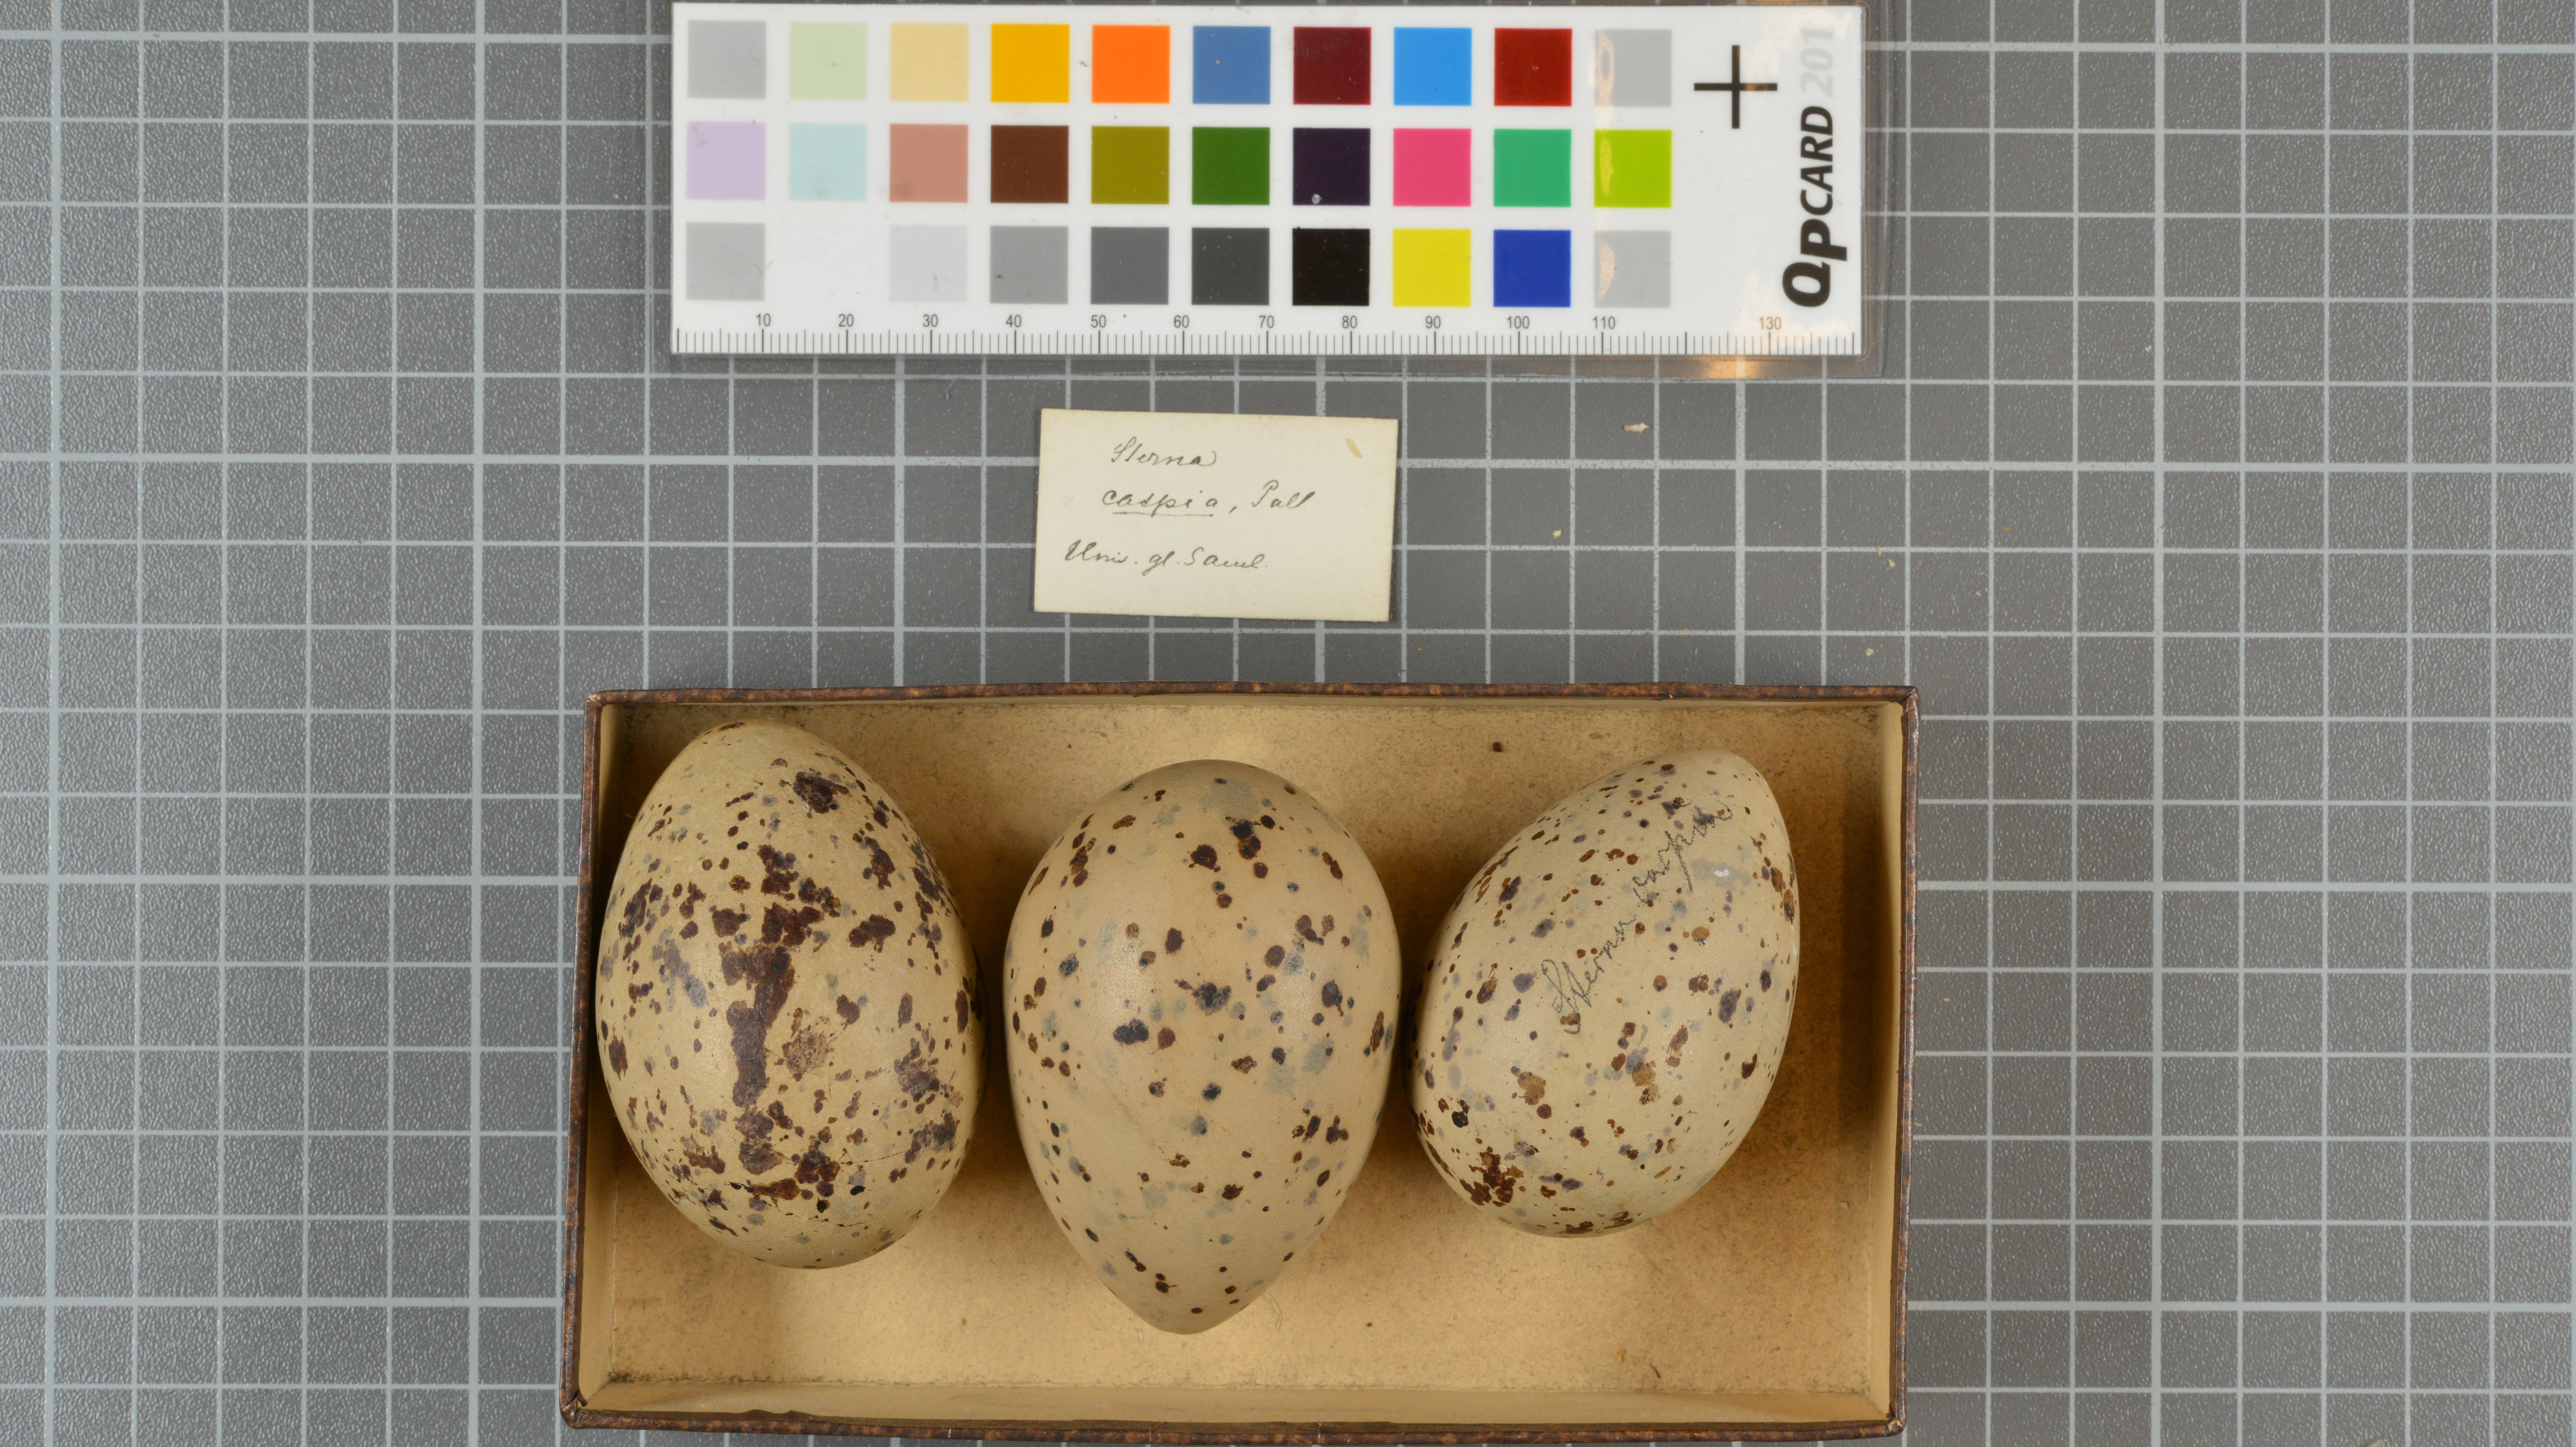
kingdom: Animalia
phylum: Chordata
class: Aves
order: Charadriiformes
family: Laridae
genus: Hydroprogne
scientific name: Hydroprogne caspia
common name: Caspian tern
